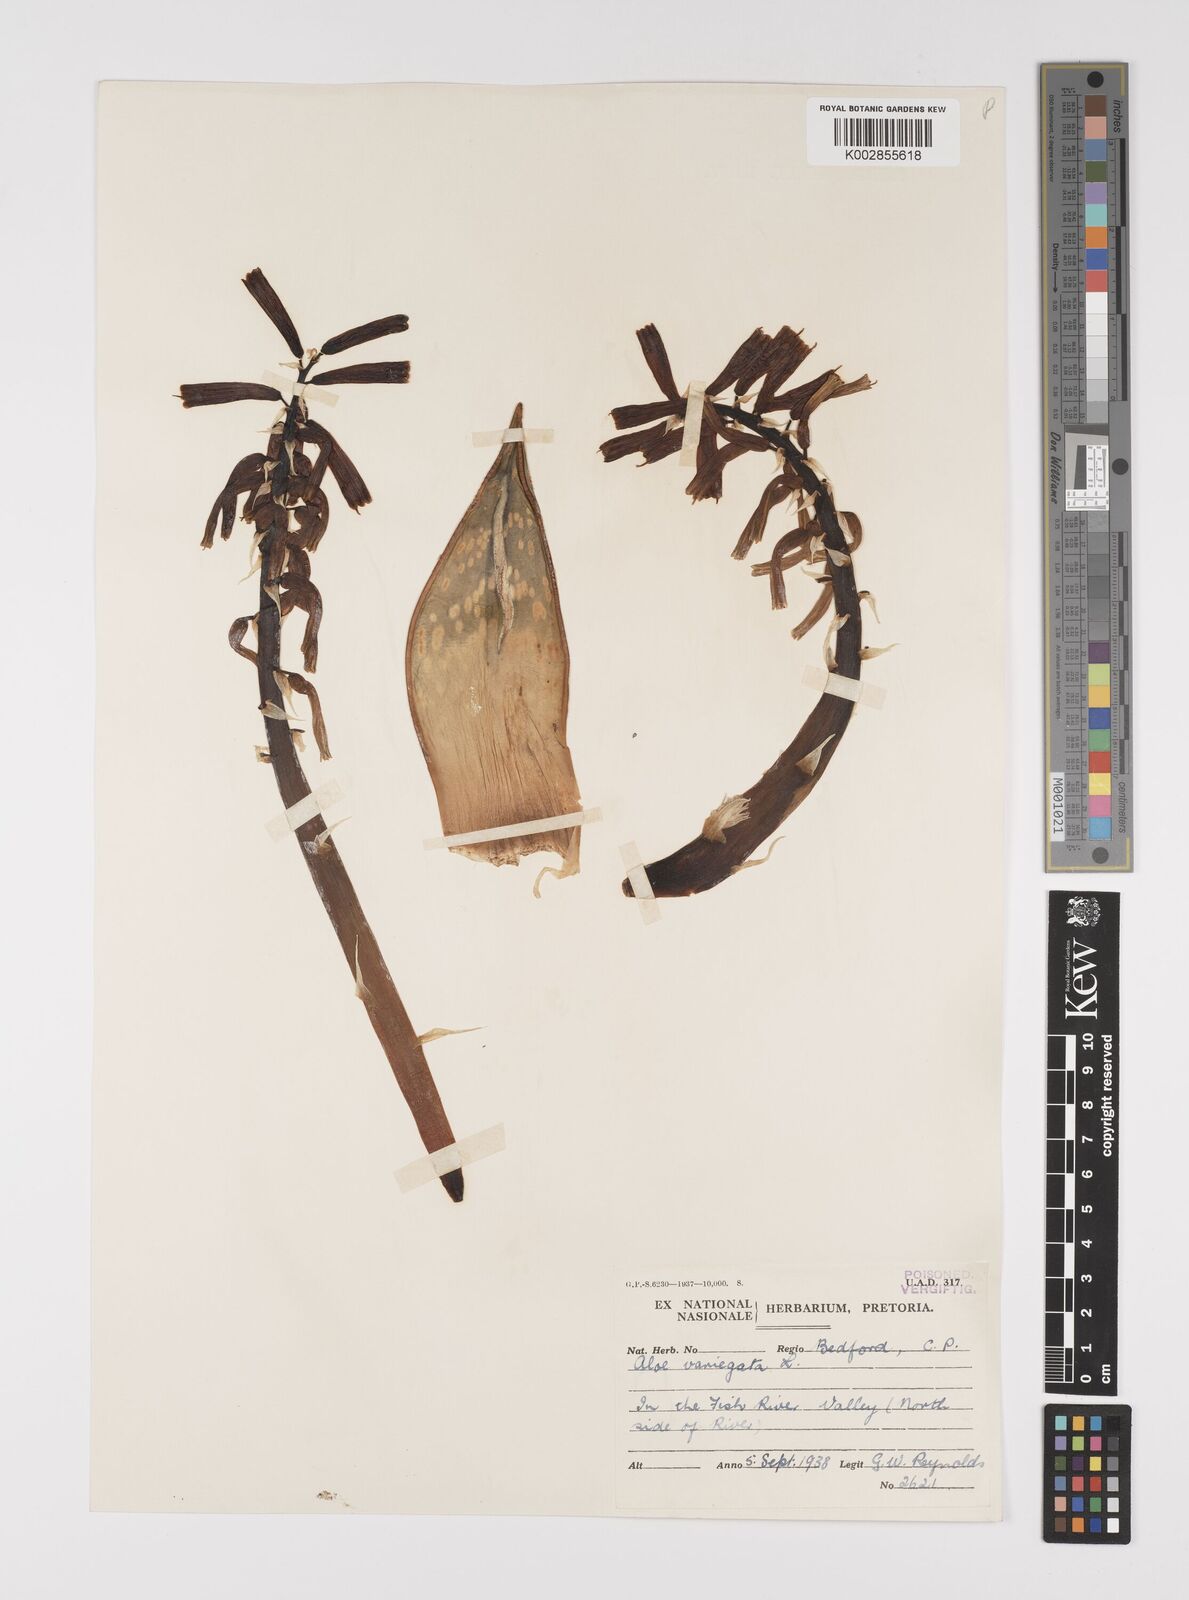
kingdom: Plantae
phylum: Tracheophyta
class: Liliopsida
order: Asparagales
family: Asphodelaceae
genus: Gonialoe
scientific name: Gonialoe variegata
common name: Aloe variegata
